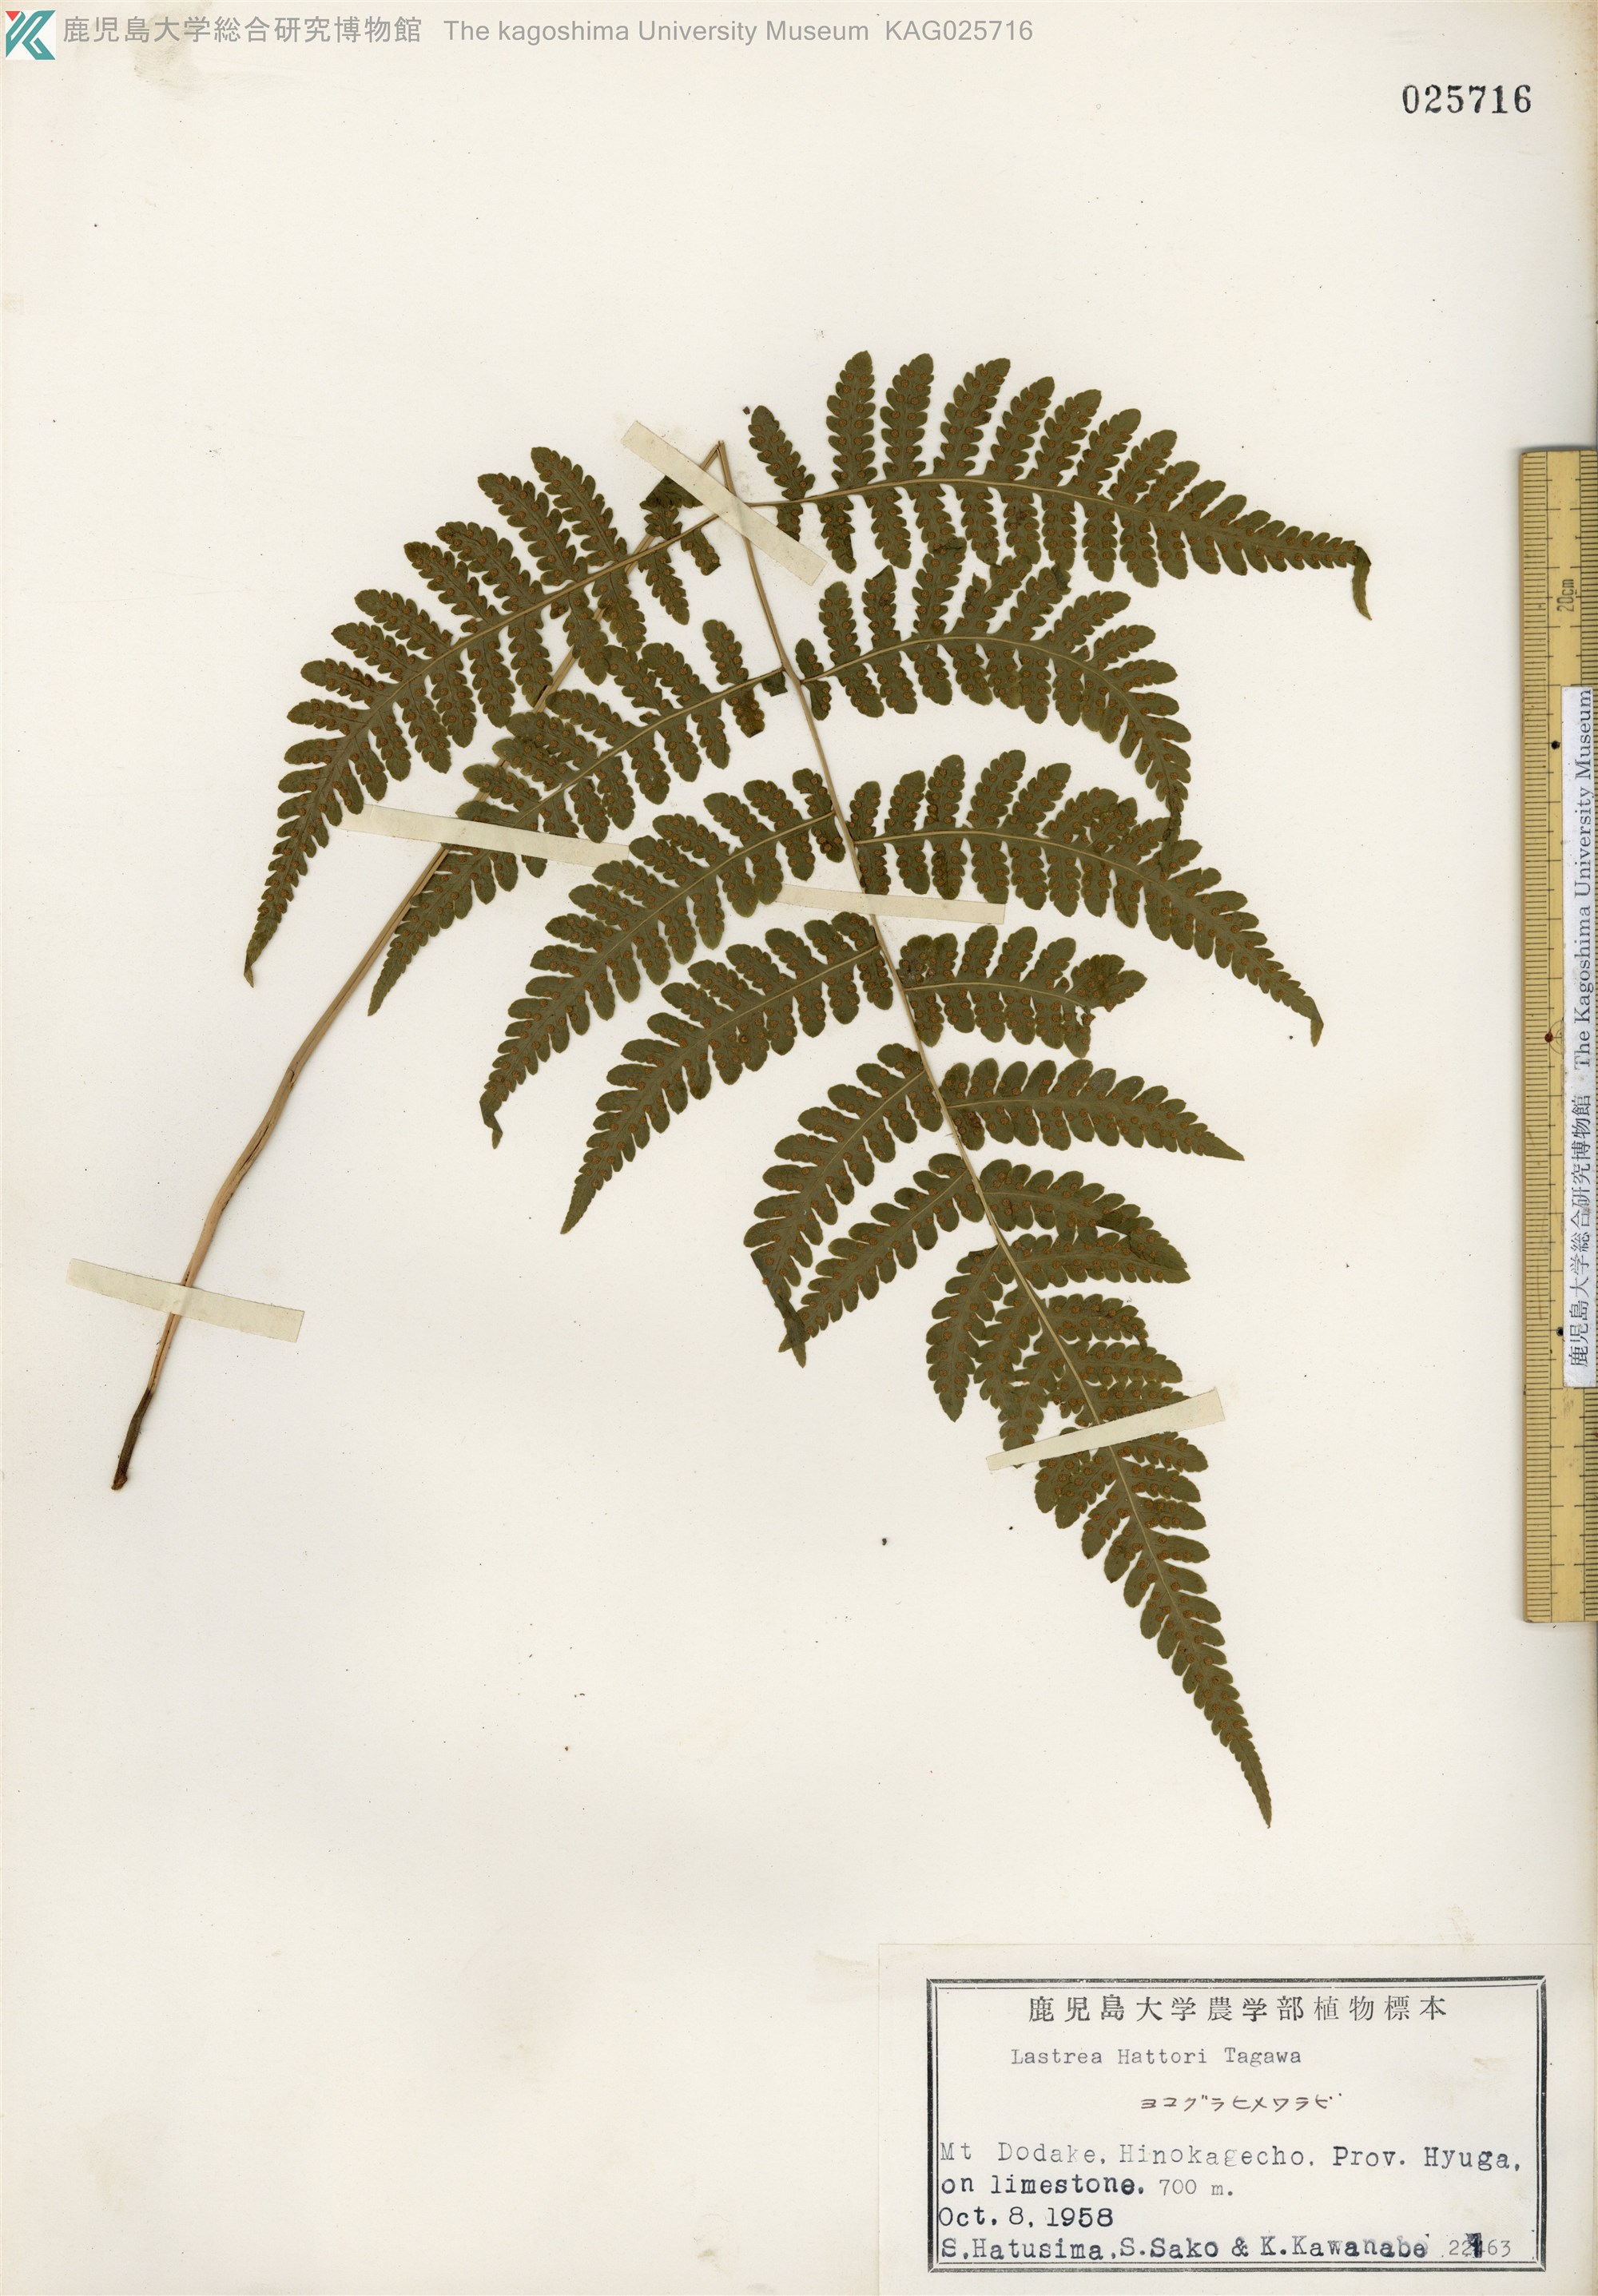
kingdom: Plantae
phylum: Tracheophyta
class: Polypodiopsida
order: Polypodiales
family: Thelypteridaceae
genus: Metathelypteris
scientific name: Metathelypteris hattori
